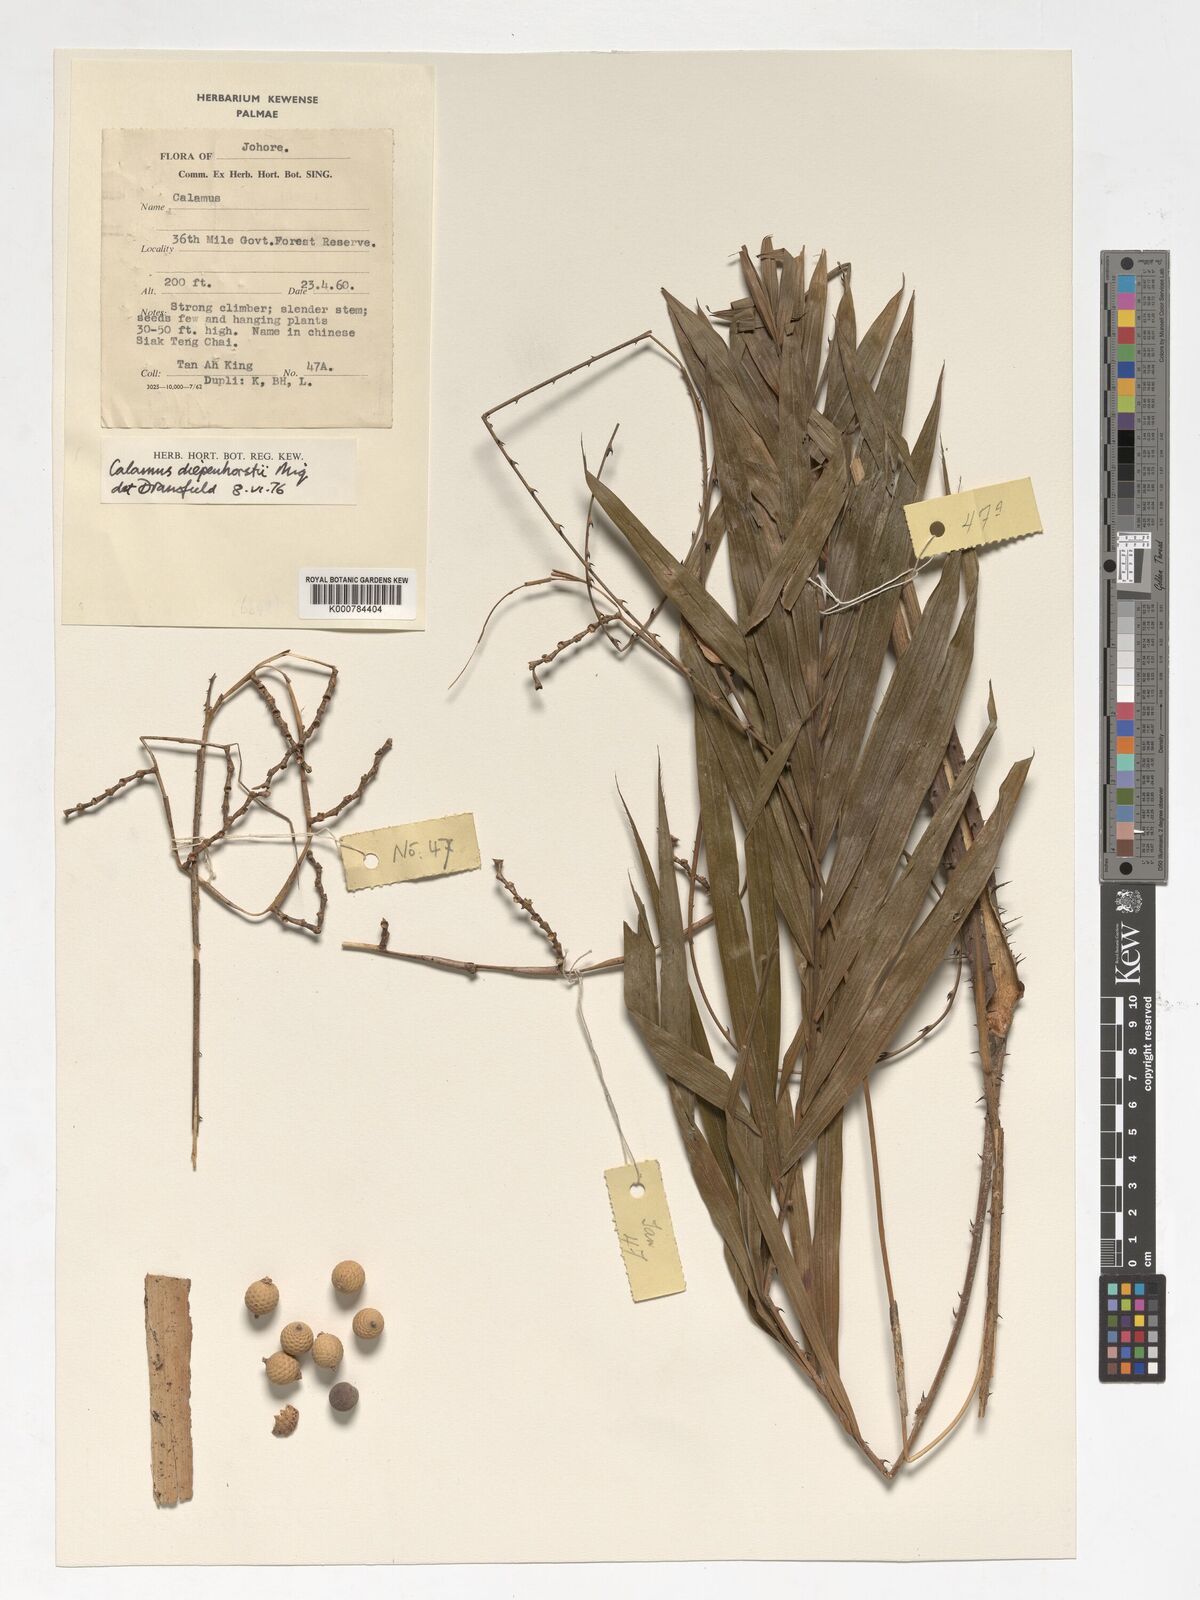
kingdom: Plantae
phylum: Tracheophyta
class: Liliopsida
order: Arecales
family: Arecaceae
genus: Calamus
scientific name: Calamus diepenhorstii
